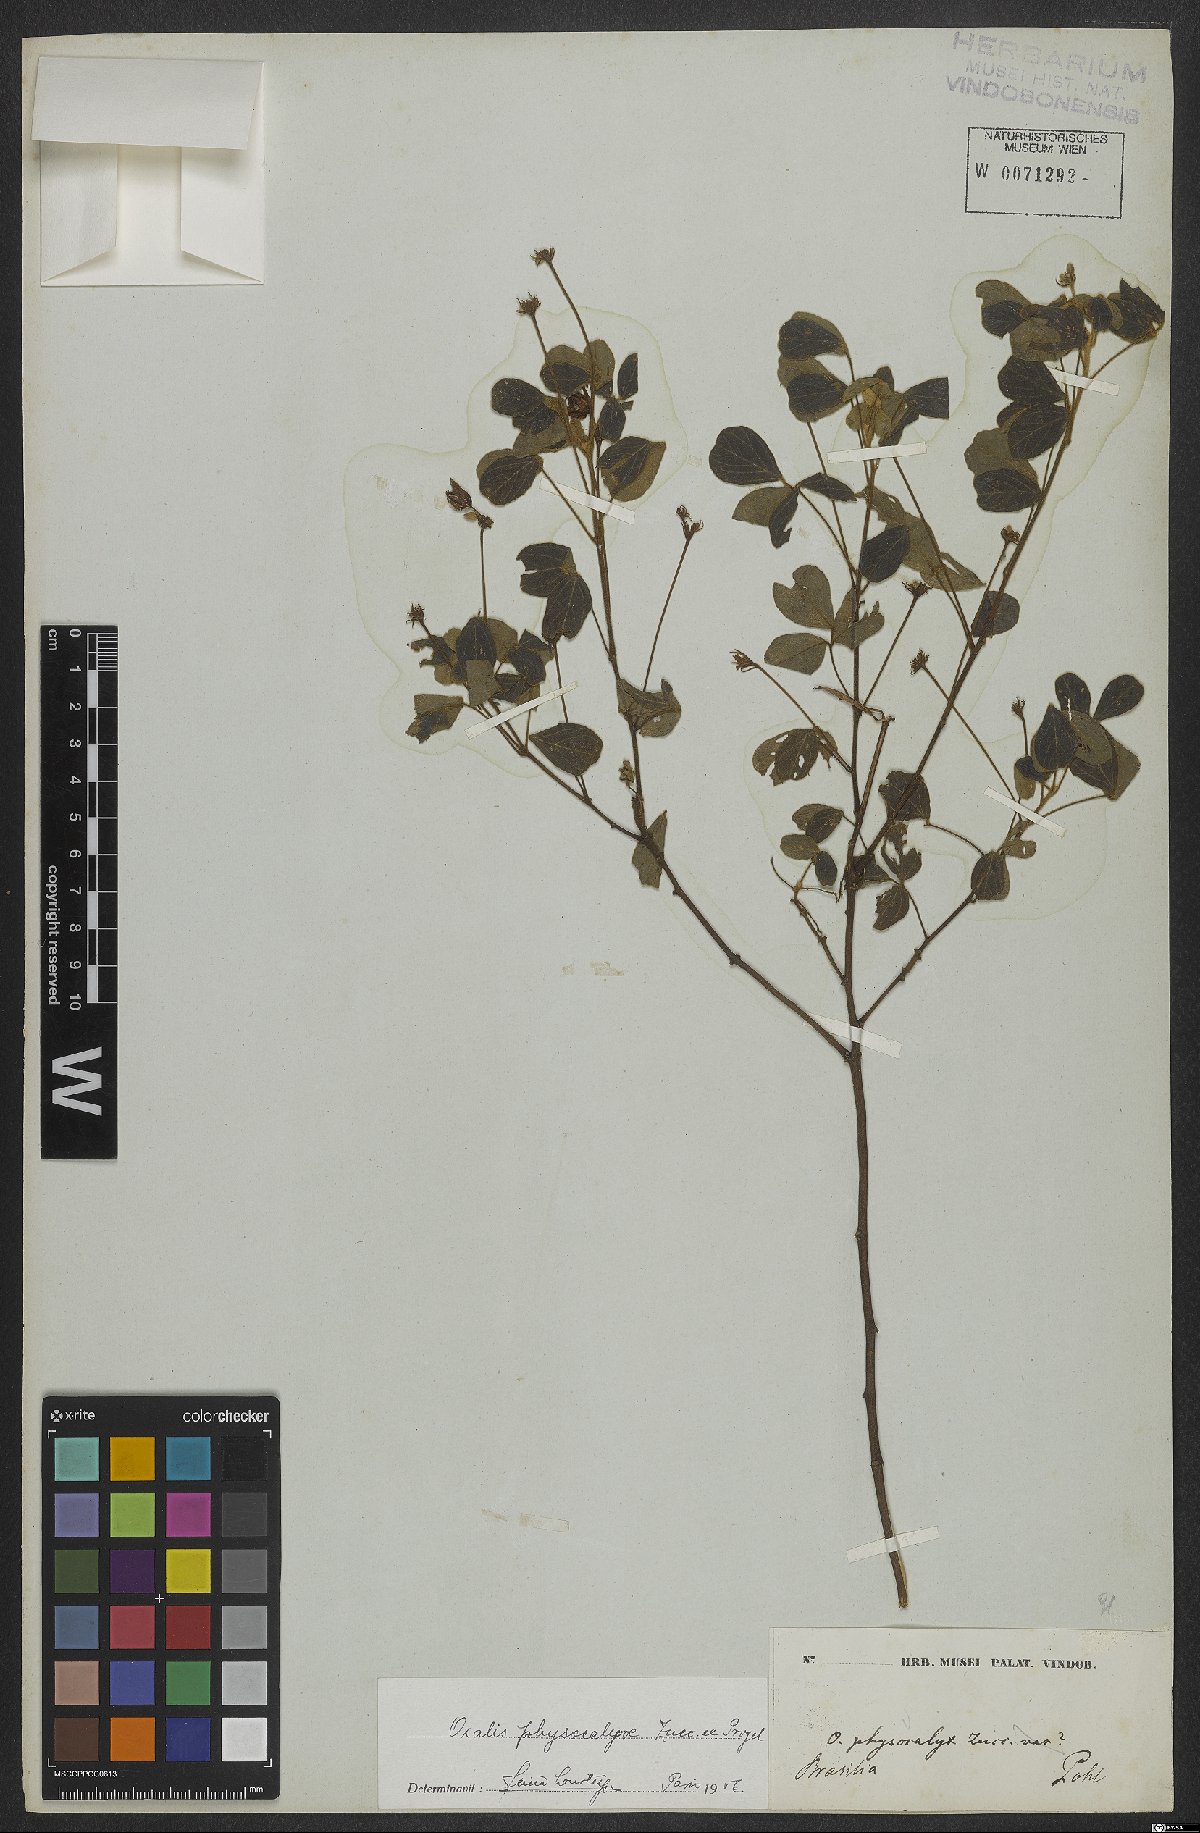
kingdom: Plantae
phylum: Tracheophyta
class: Magnoliopsida
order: Oxalidales
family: Oxalidaceae
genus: Oxalis
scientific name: Oxalis physocalyx
